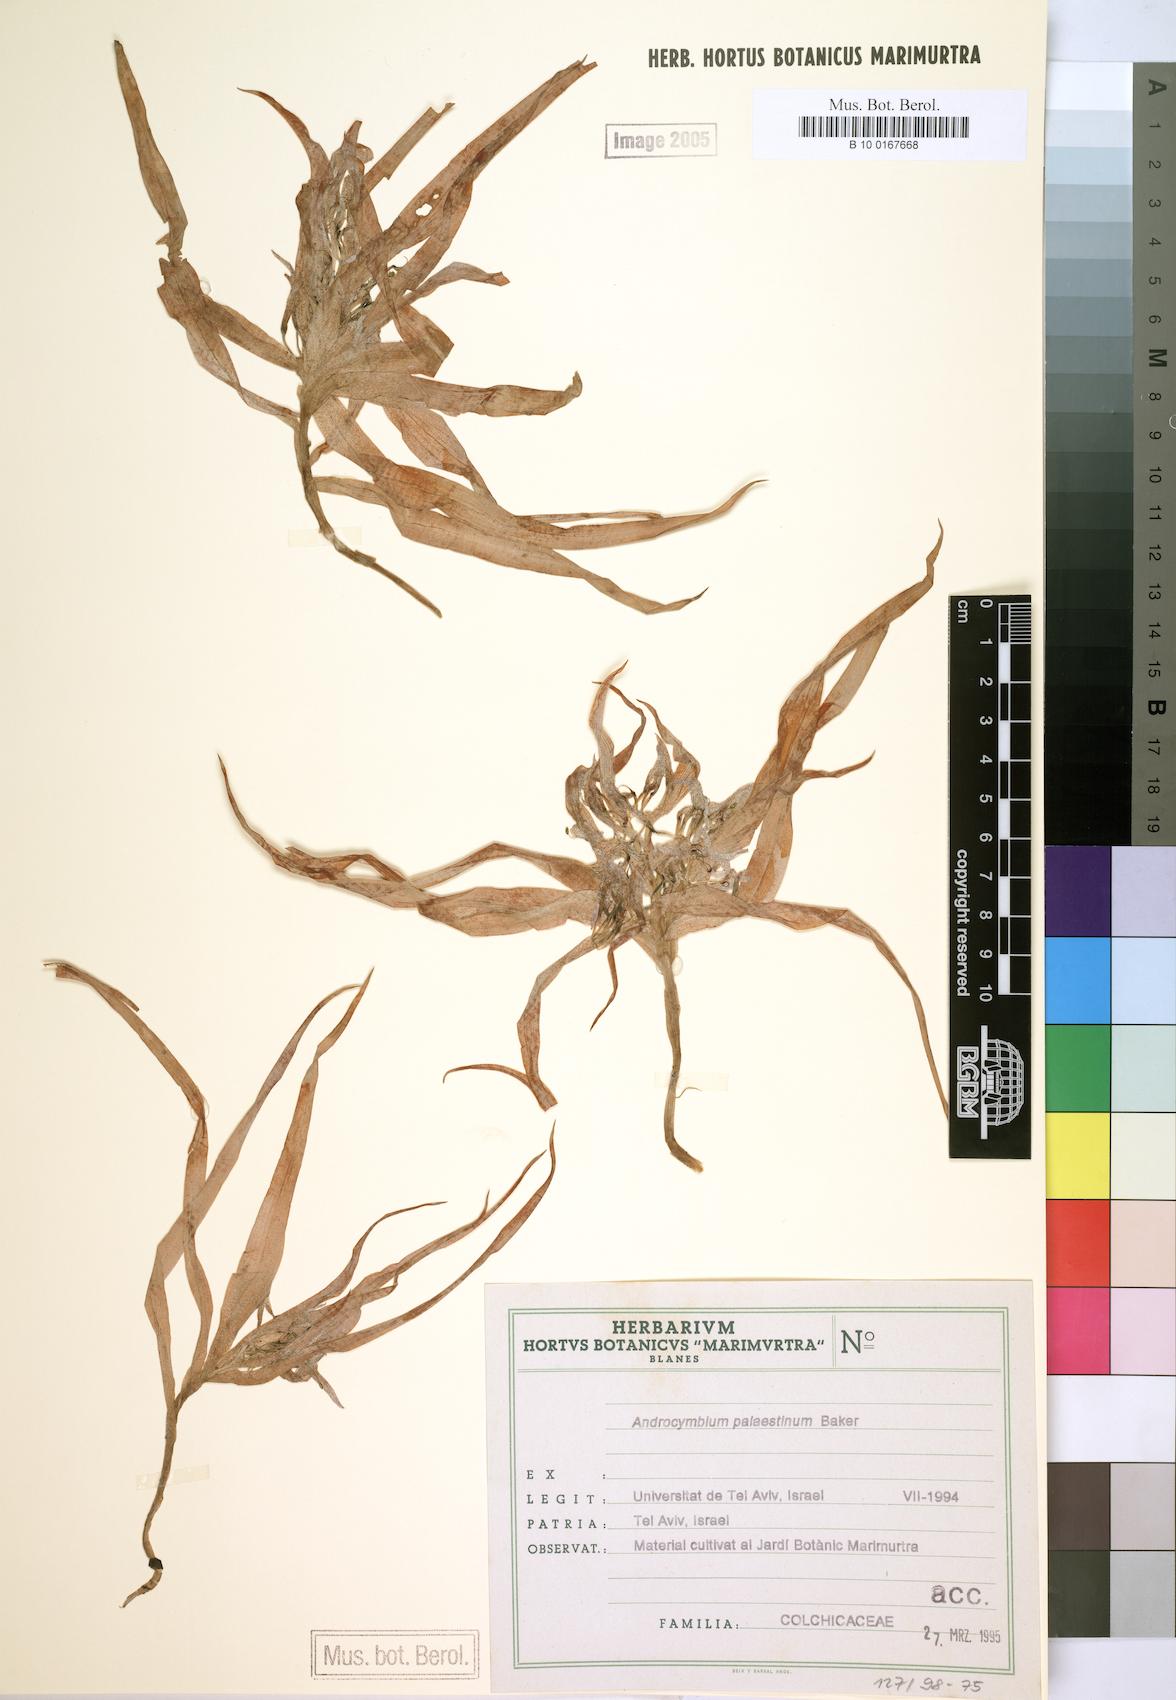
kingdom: Plantae
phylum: Tracheophyta
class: Liliopsida
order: Liliales
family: Colchicaceae
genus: Colchicum
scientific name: Colchicum palaestinum
